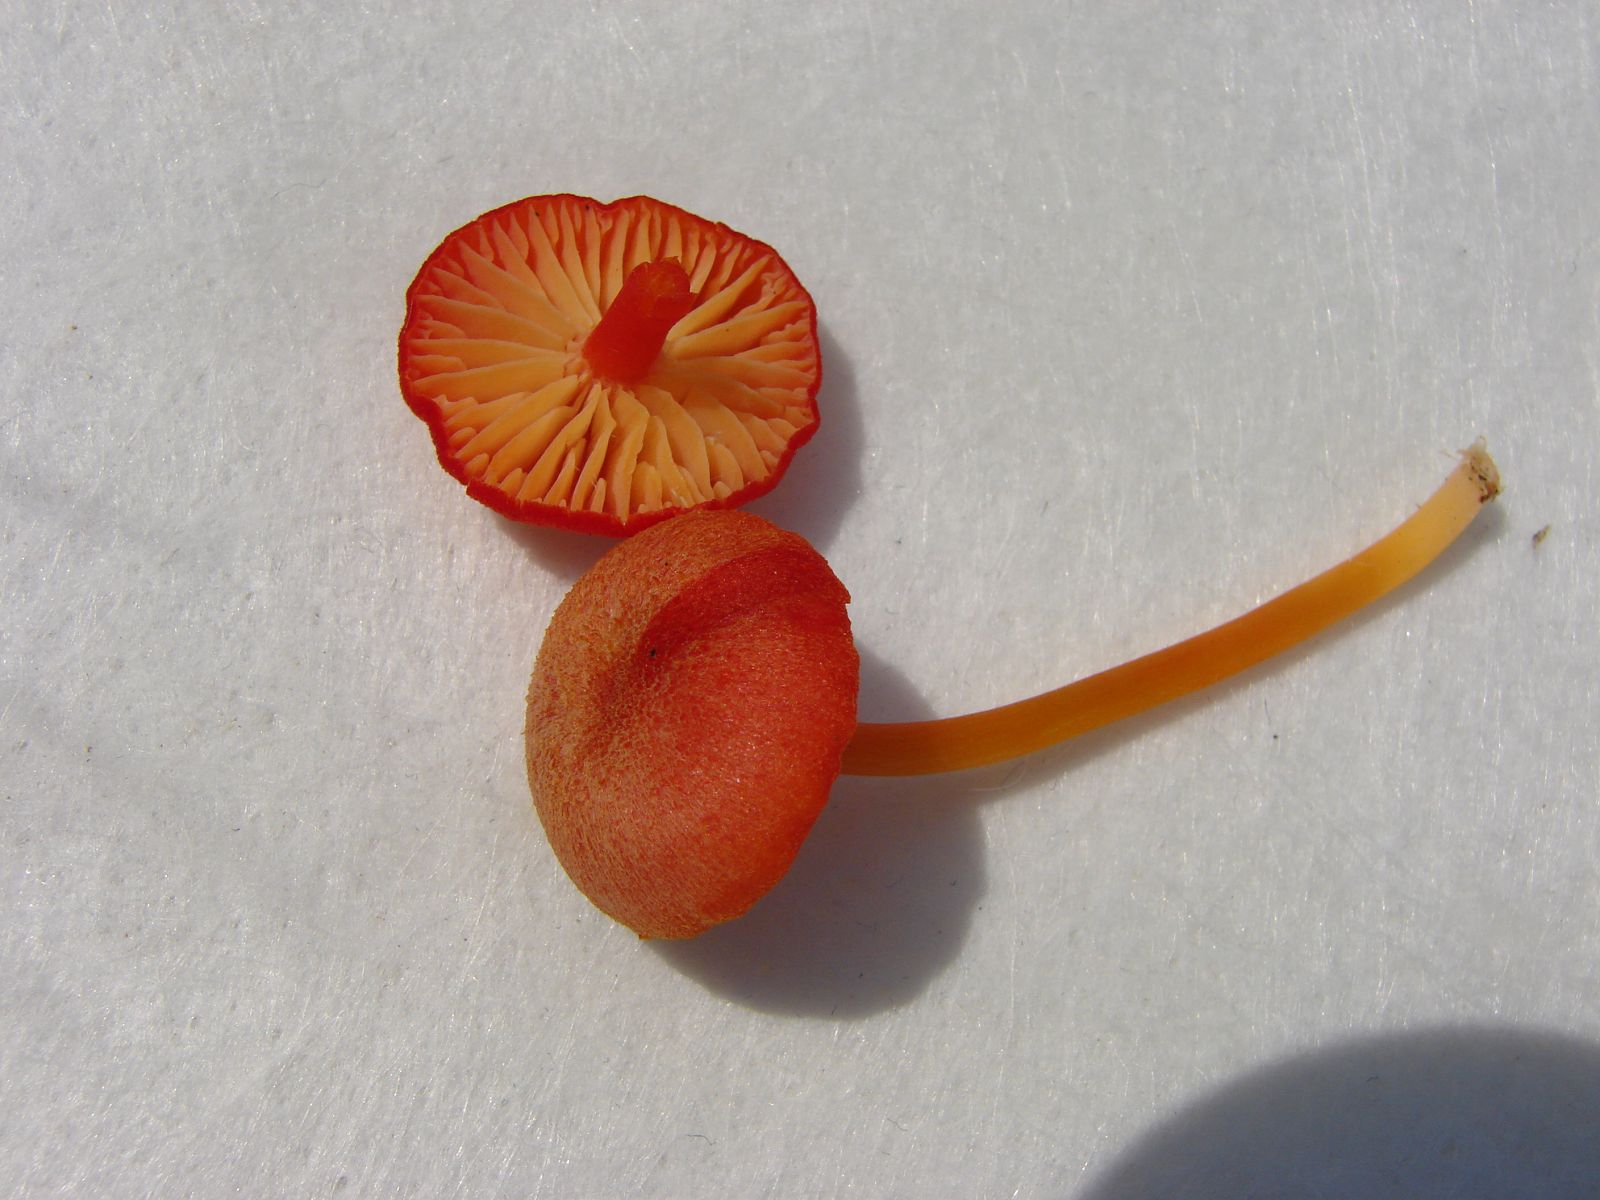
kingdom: Fungi
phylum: Basidiomycota
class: Agaricomycetes
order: Agaricales
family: Hygrophoraceae
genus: Hygrocybe
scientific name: Hygrocybe helobia
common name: hvidløgs-vokshat
